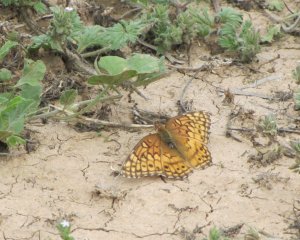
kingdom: Animalia
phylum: Arthropoda
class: Insecta
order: Lepidoptera
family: Nymphalidae
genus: Euptoieta
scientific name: Euptoieta claudia
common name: Variegated Fritillary
